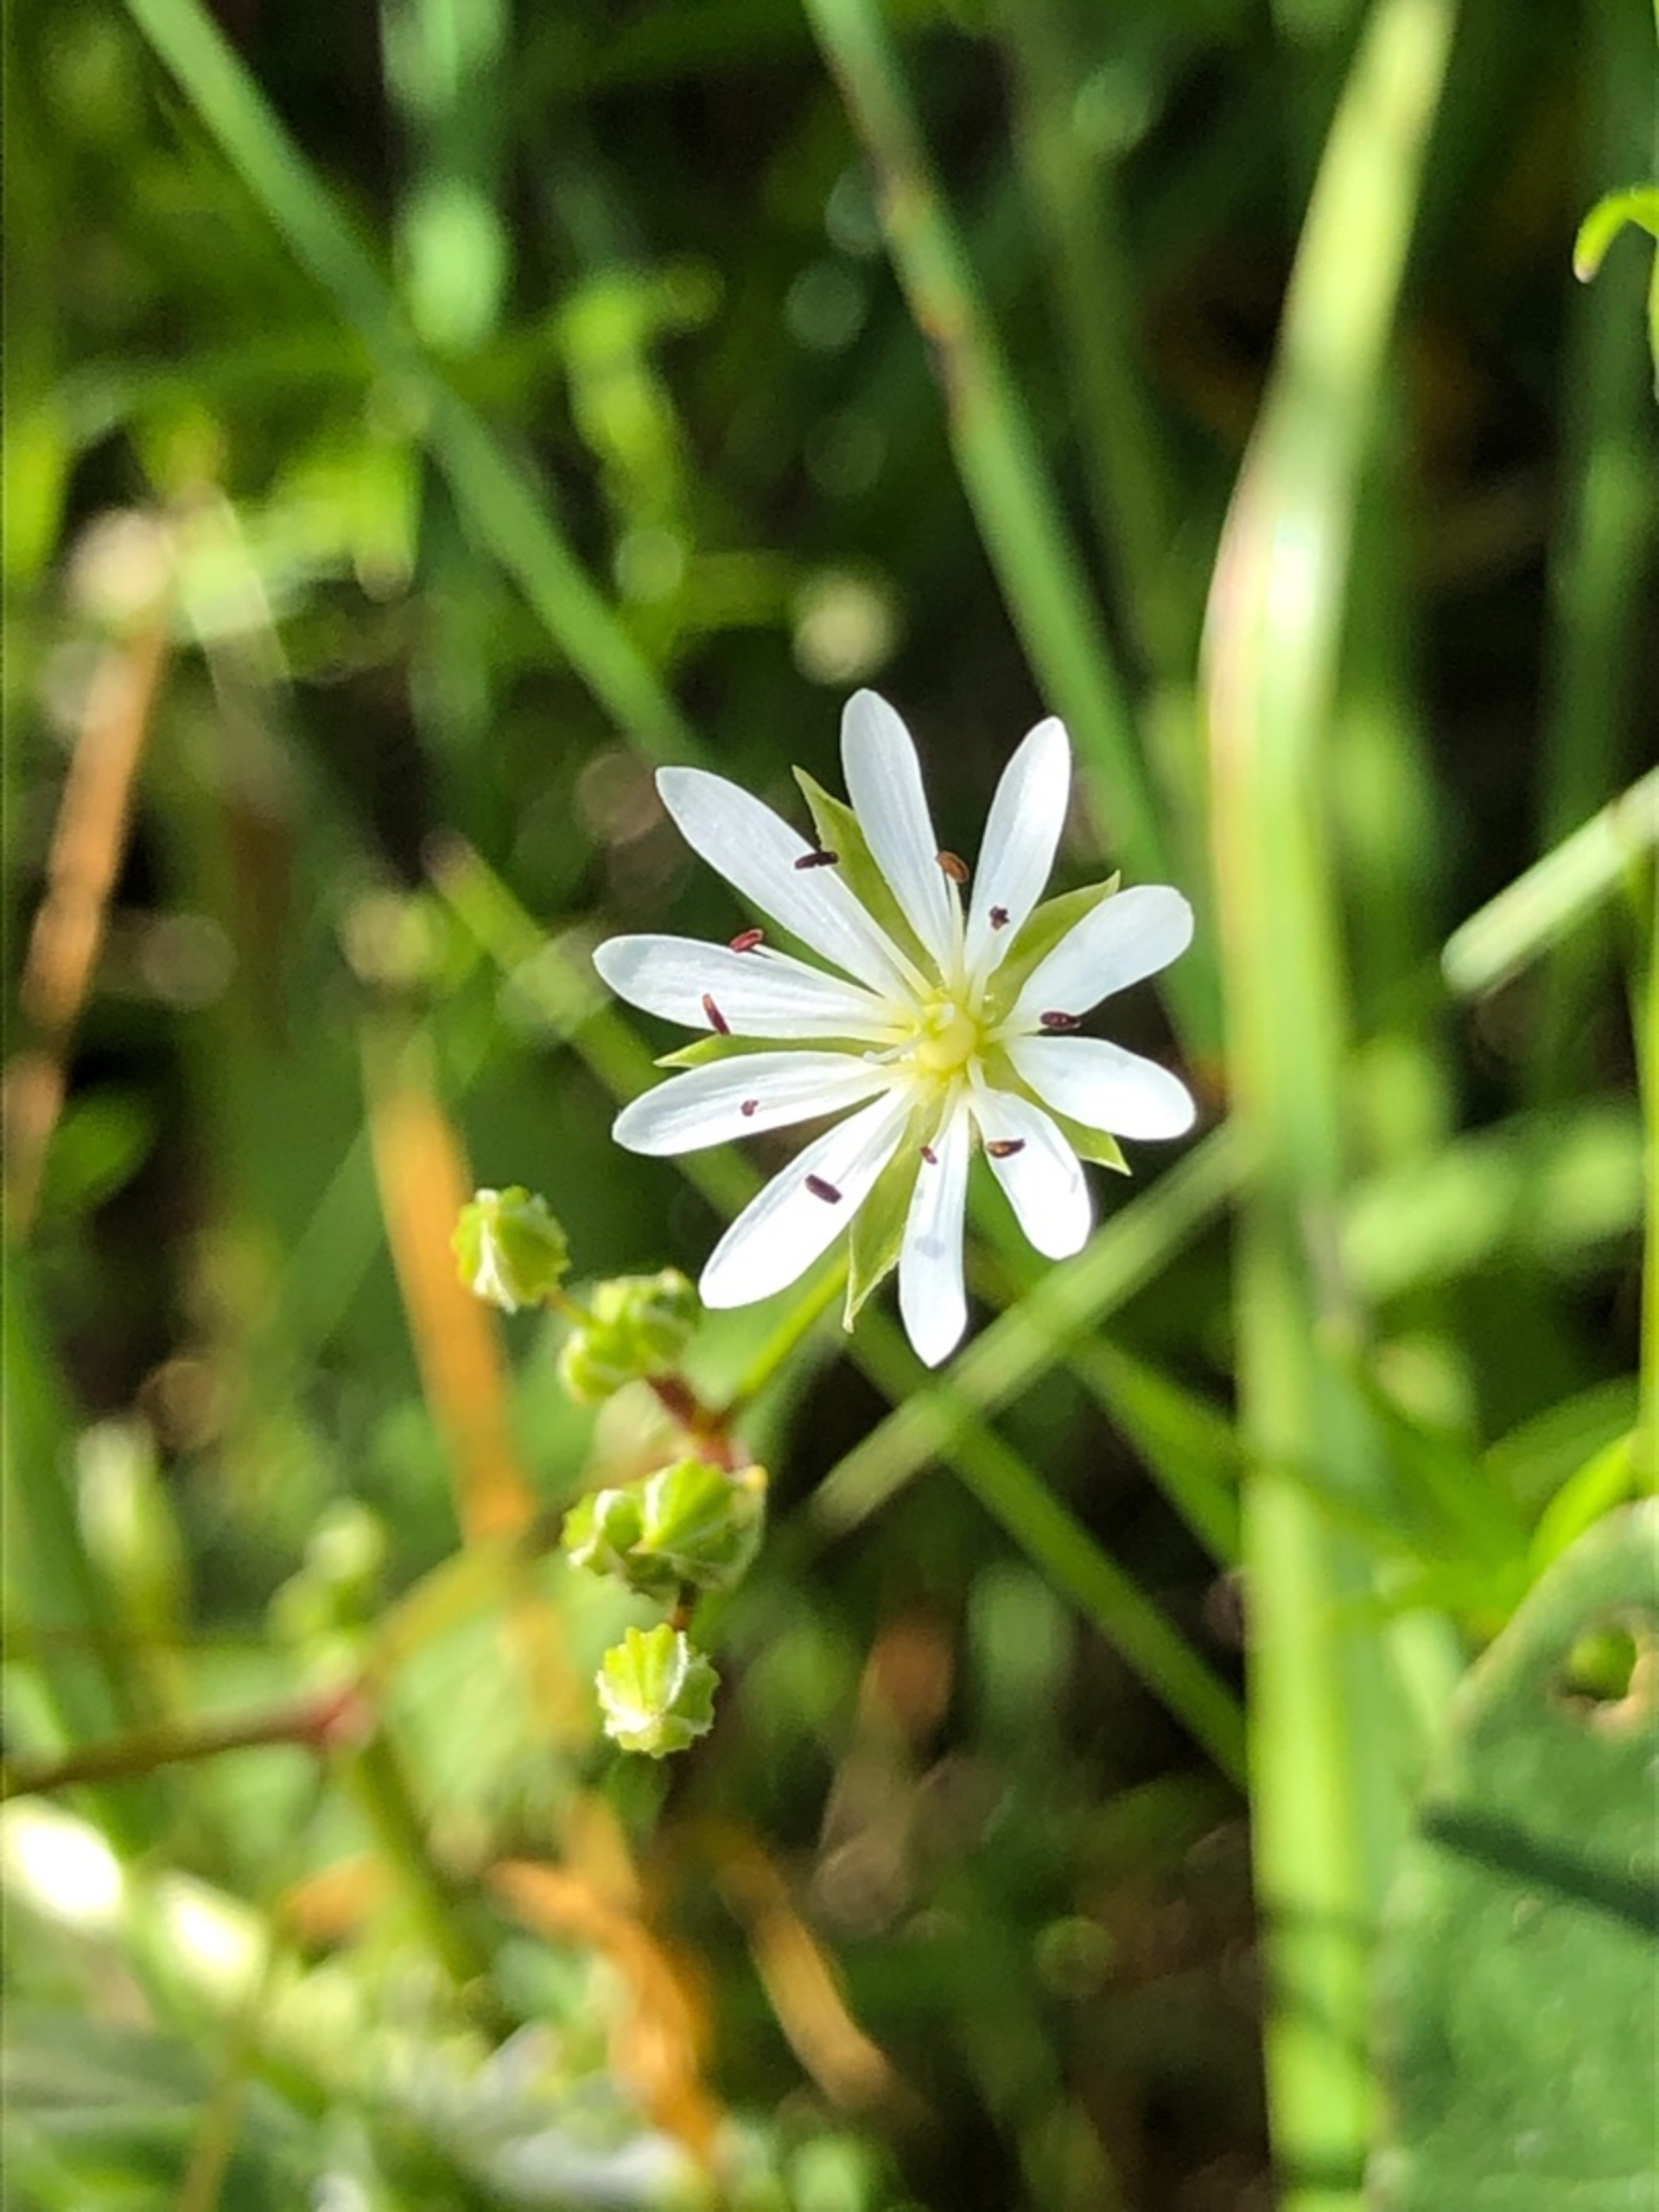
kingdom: Plantae
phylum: Tracheophyta
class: Magnoliopsida
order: Caryophyllales
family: Caryophyllaceae
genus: Stellaria
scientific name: Stellaria graminea
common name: Græsbladet fladstjerne
